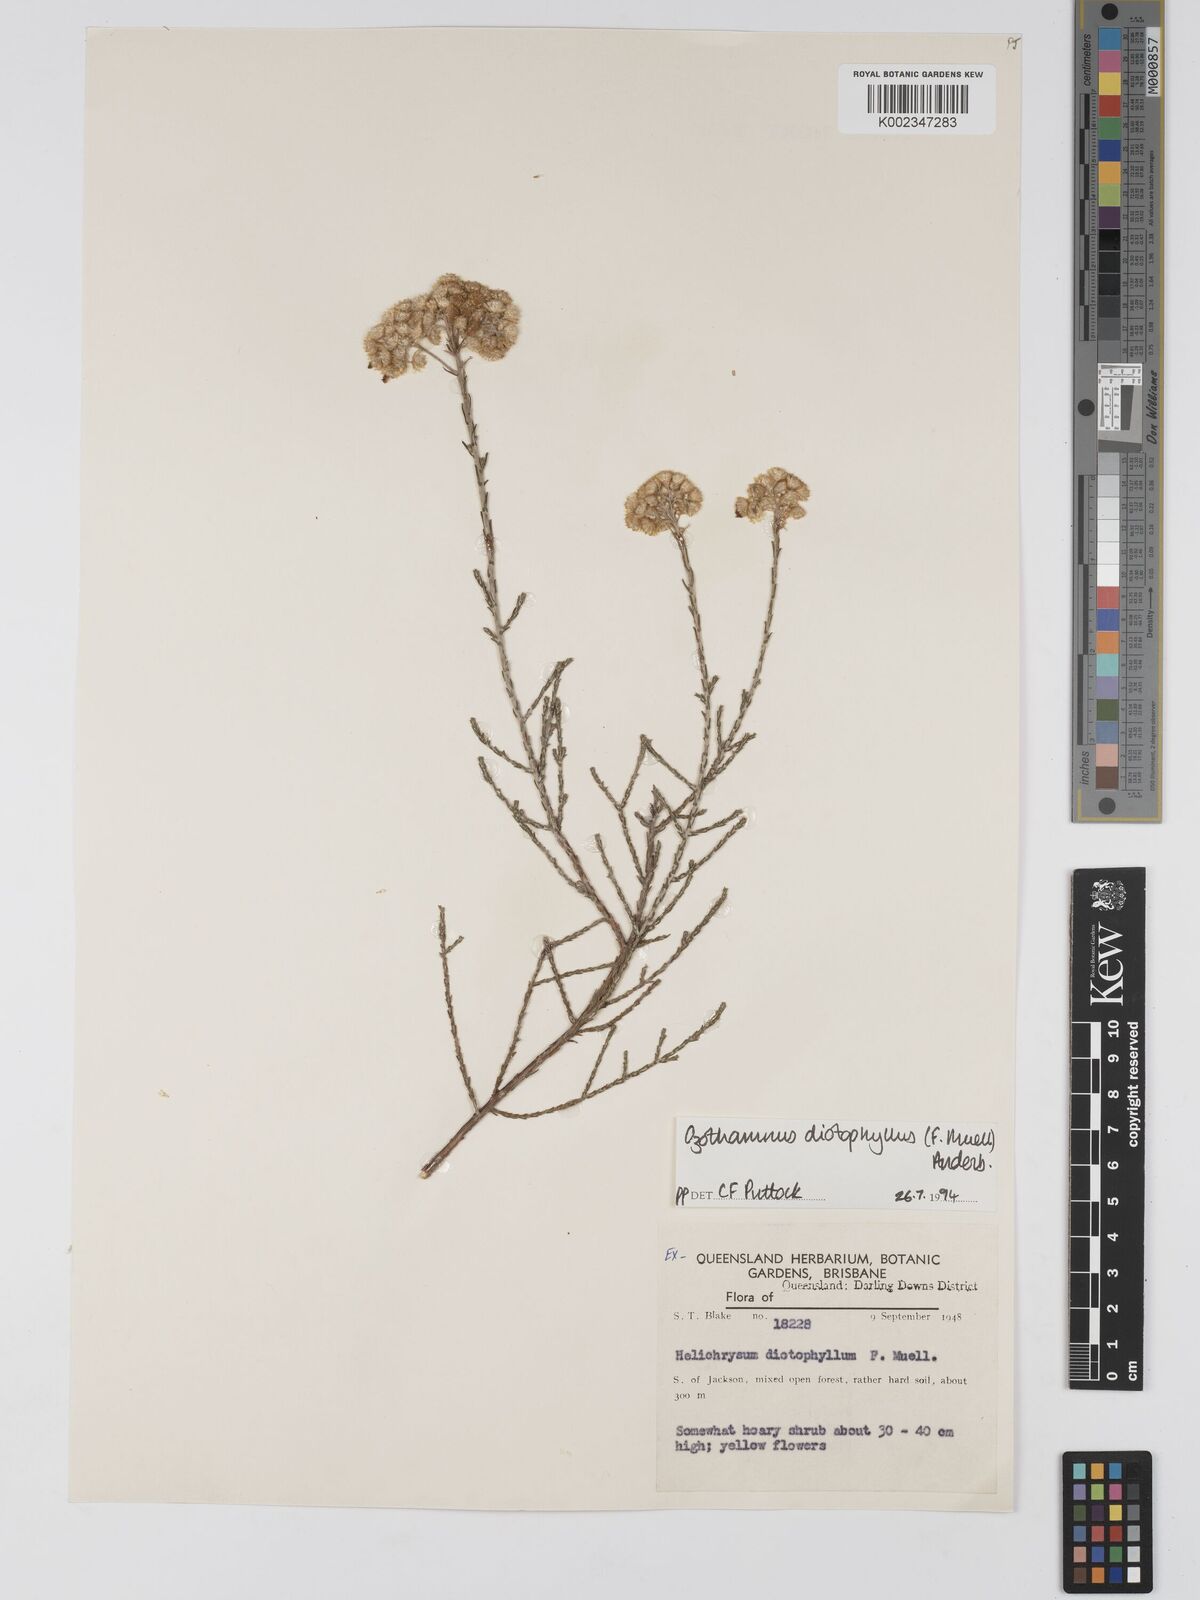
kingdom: Plantae
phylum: Tracheophyta
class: Magnoliopsida
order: Asterales
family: Asteraceae
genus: Ozothamnus
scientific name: Ozothamnus diotophyllus
